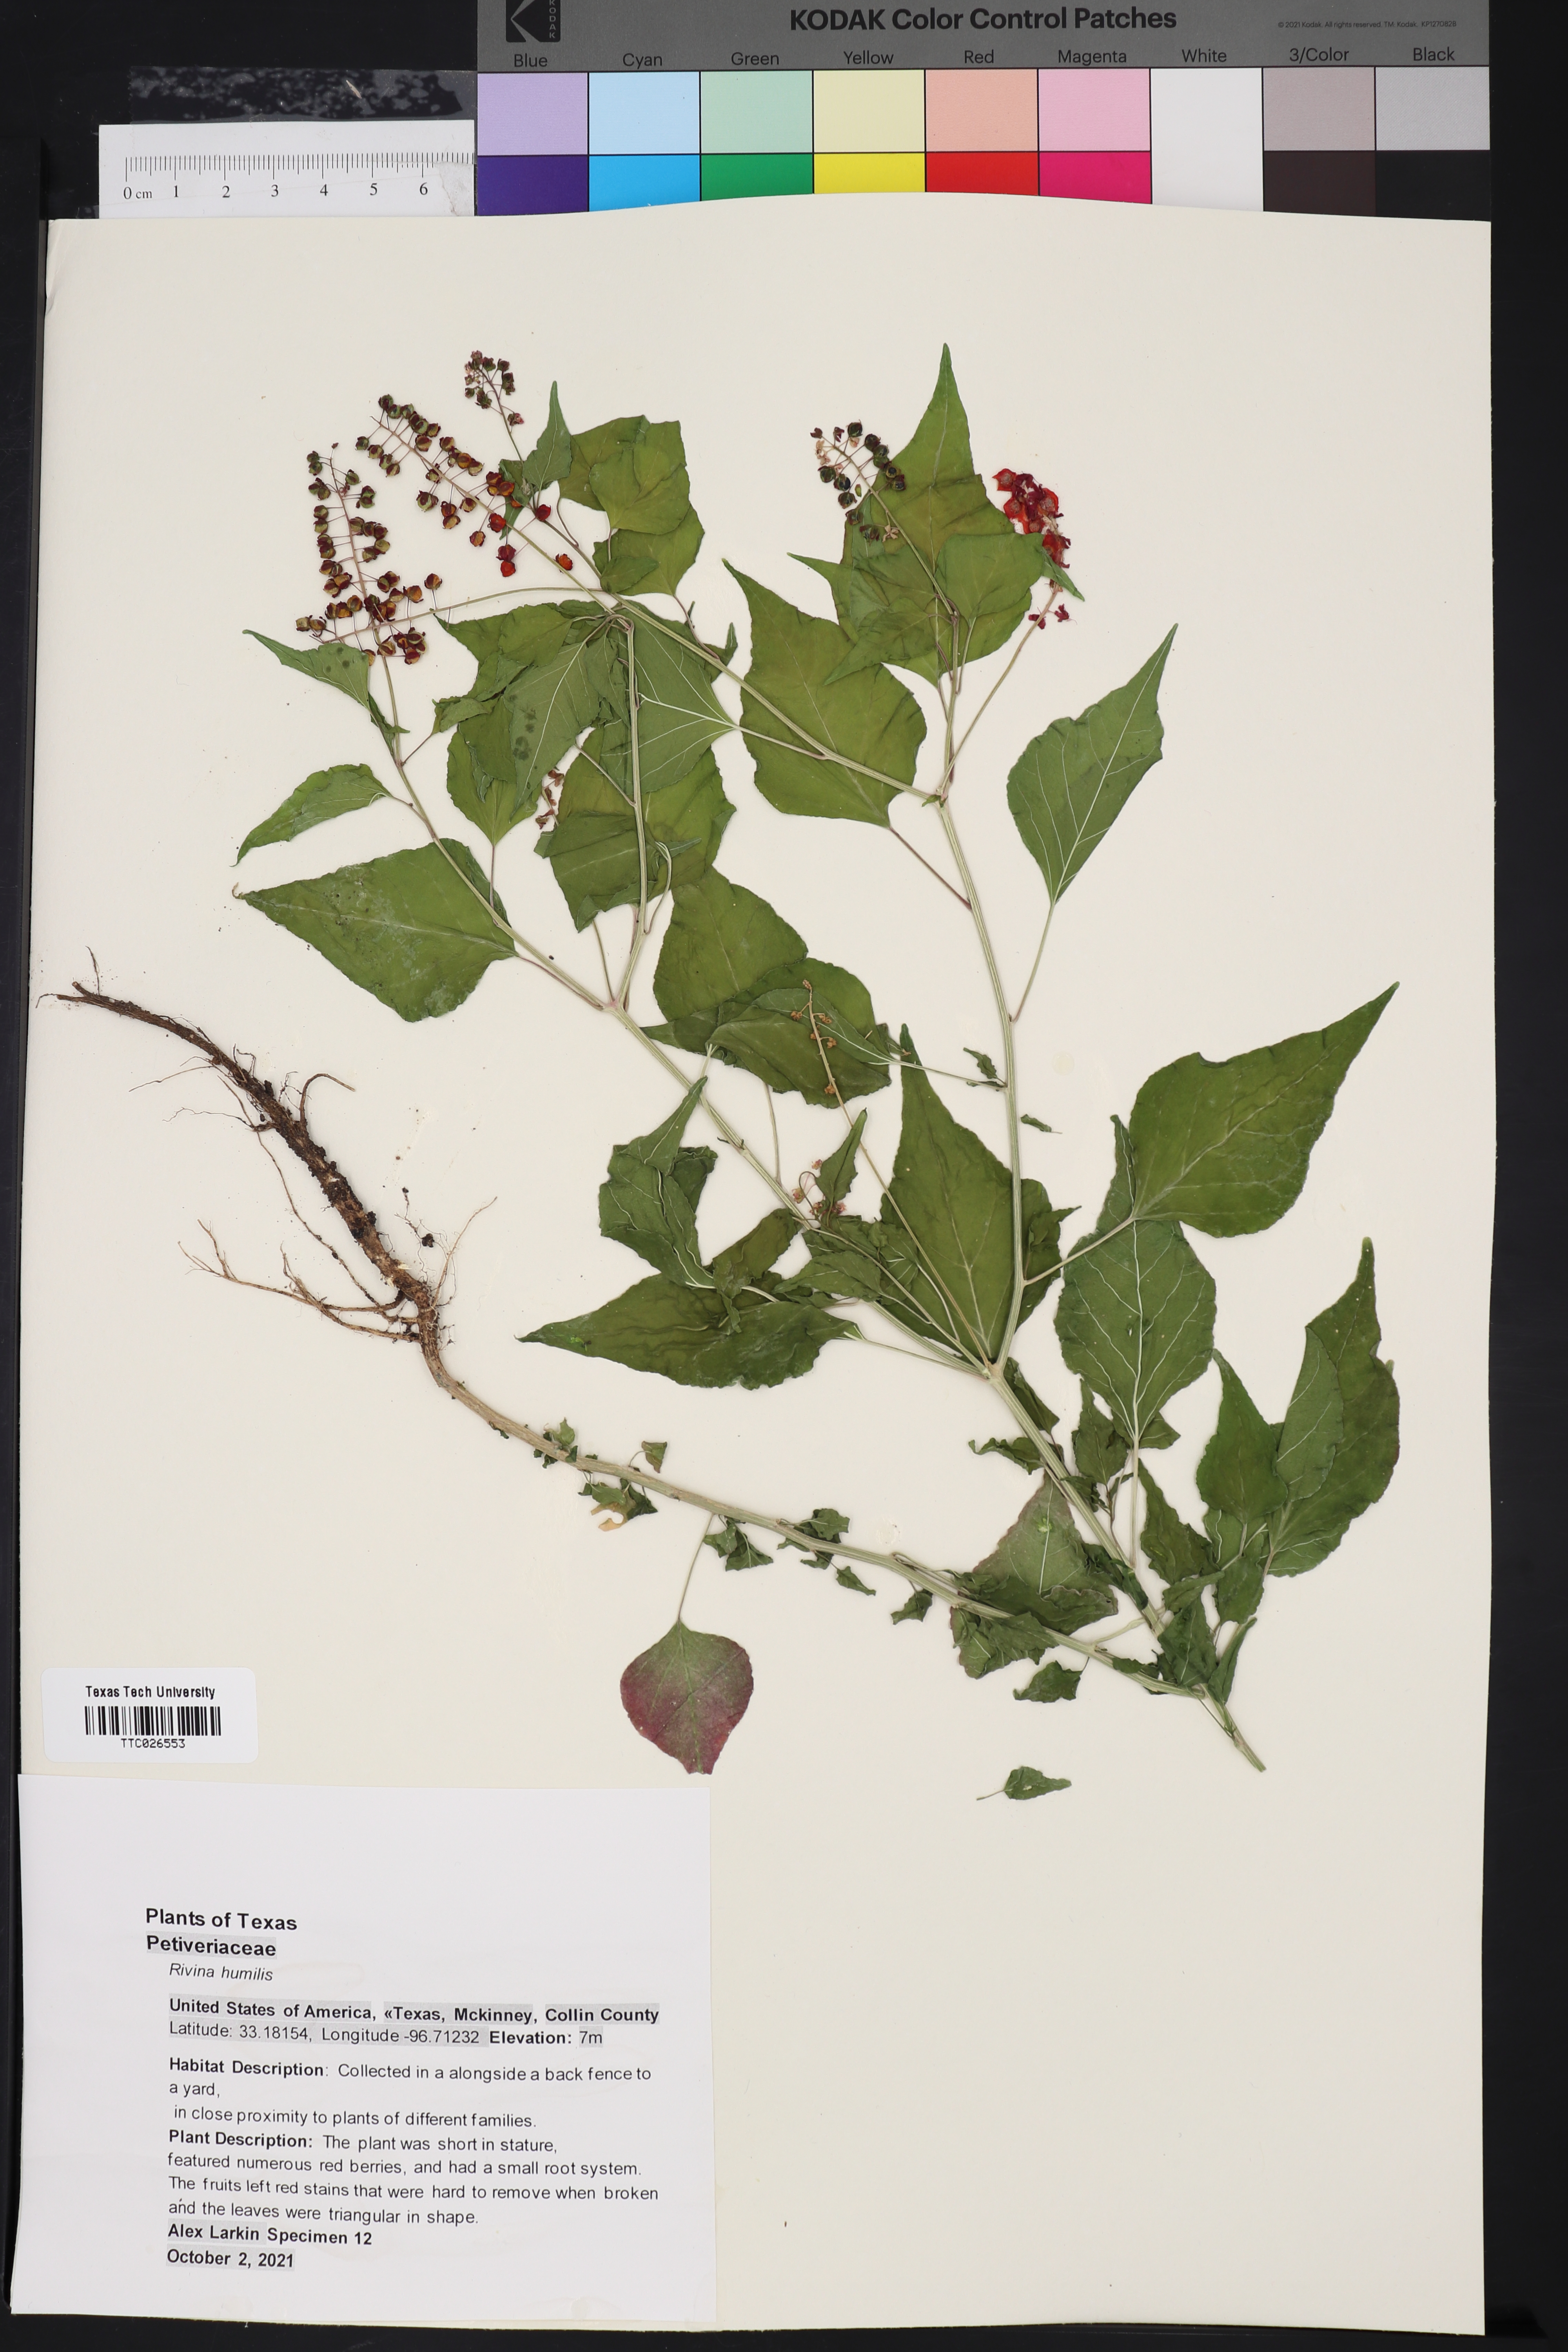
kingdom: Plantae
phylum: Tracheophyta
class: Magnoliopsida
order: Caryophyllales
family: Phytolaccaceae
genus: Rivina
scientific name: Rivina humilis
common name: Rougeplant
